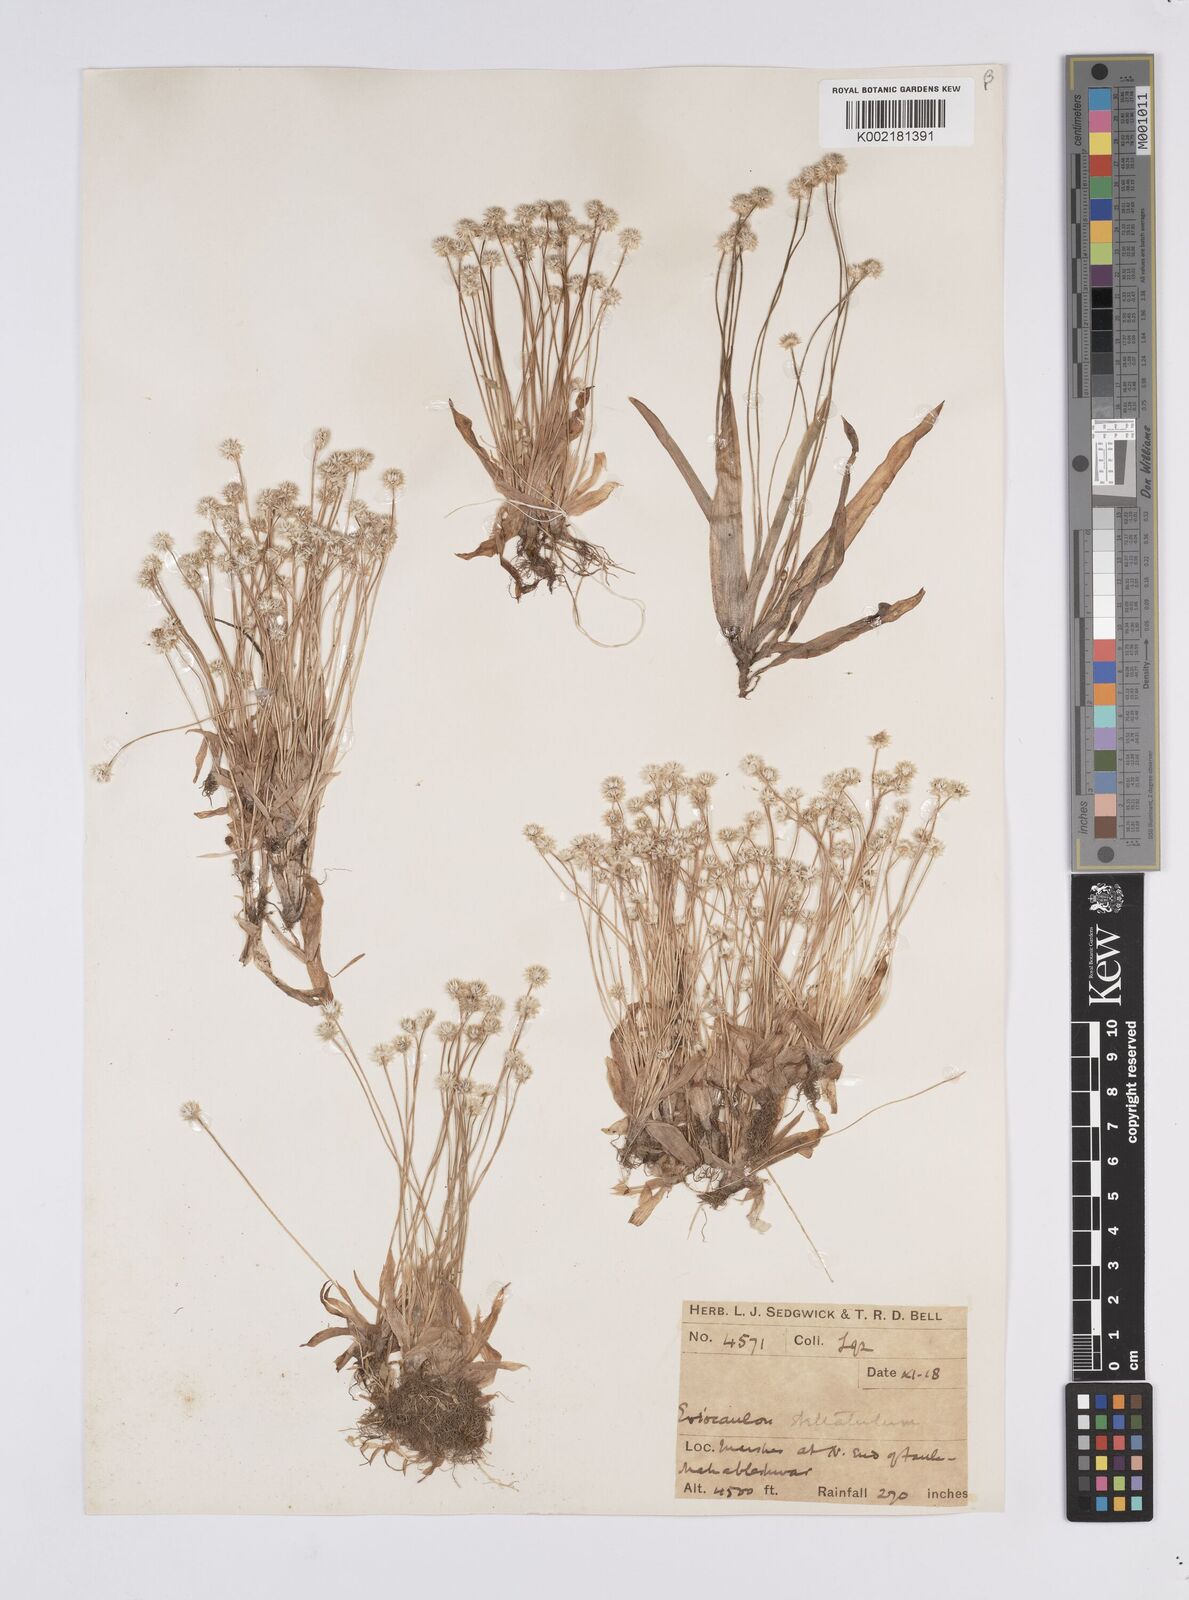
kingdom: Plantae
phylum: Tracheophyta
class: Liliopsida
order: Poales
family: Eriocaulaceae
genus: Eriocaulon
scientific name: Eriocaulon stellulatum
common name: Starry pipewort
